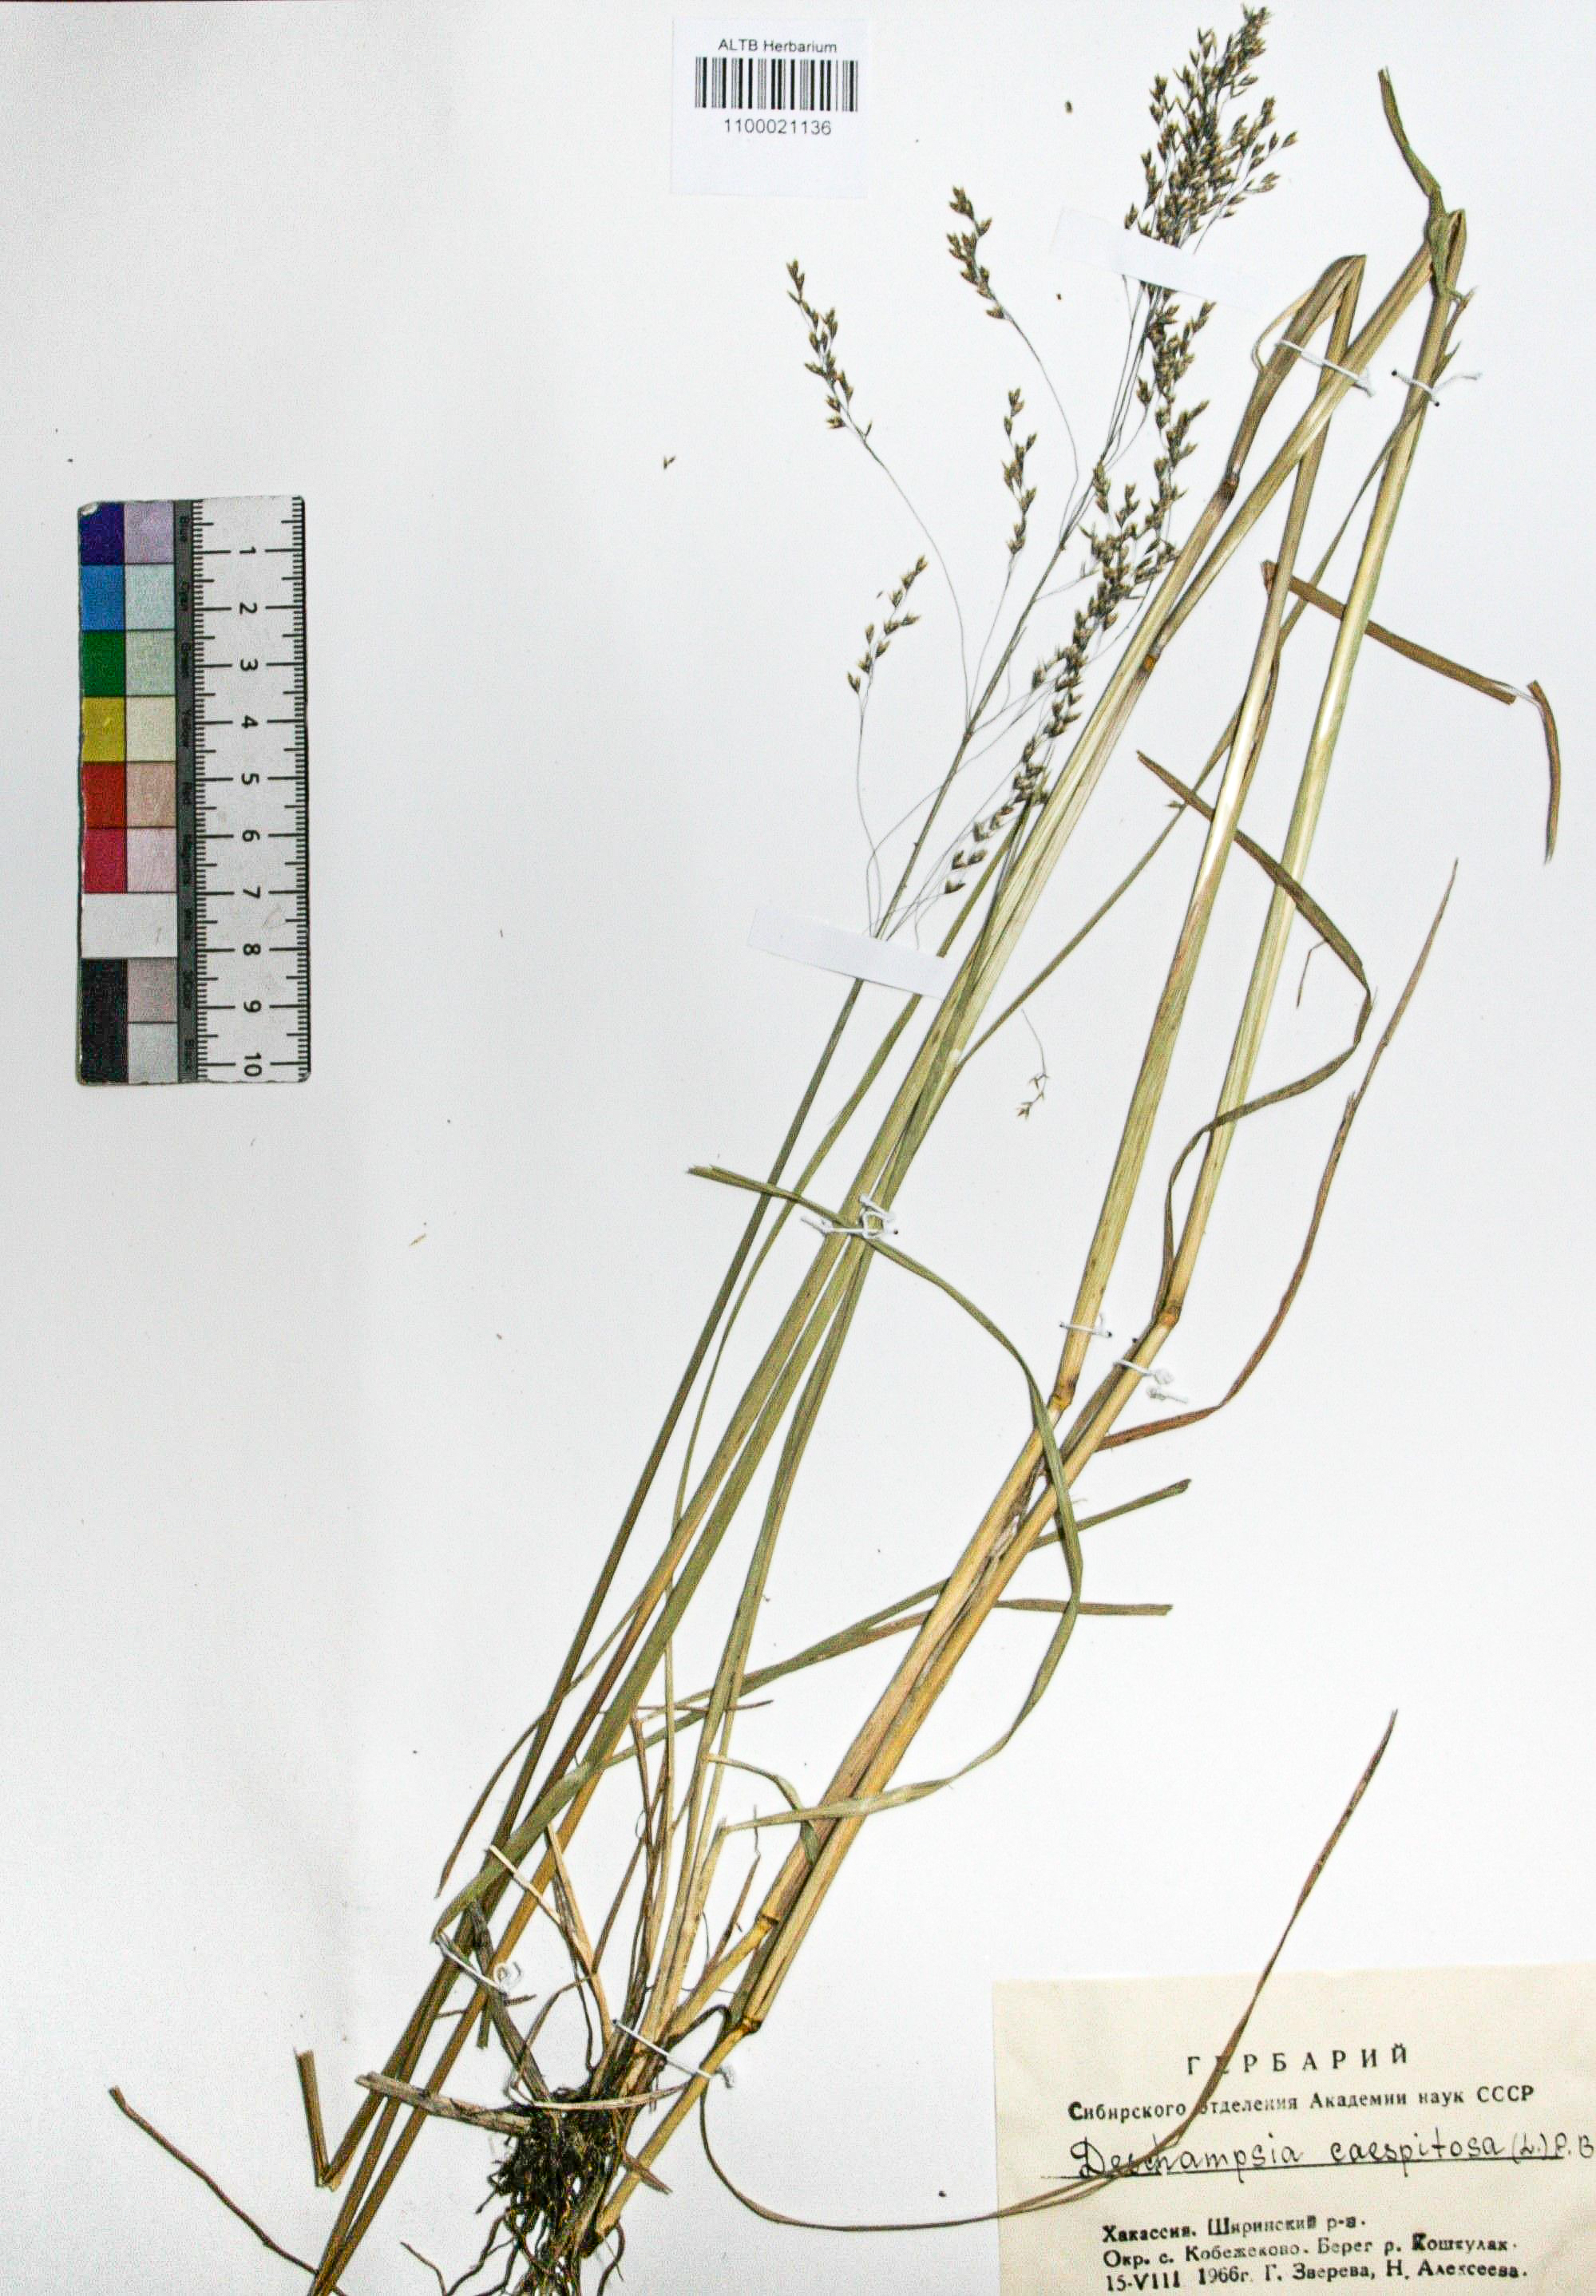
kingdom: Plantae
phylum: Tracheophyta
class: Liliopsida
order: Poales
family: Poaceae
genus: Deschampsia
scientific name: Deschampsia cespitosa
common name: Tufted hair-grass
